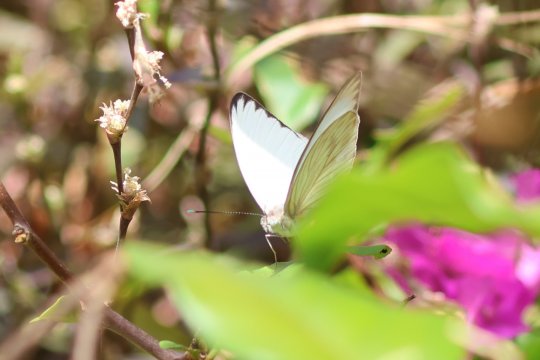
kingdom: Animalia
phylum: Arthropoda
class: Insecta
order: Lepidoptera
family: Pieridae
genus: Ascia
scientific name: Ascia monuste
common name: Great Southern White
